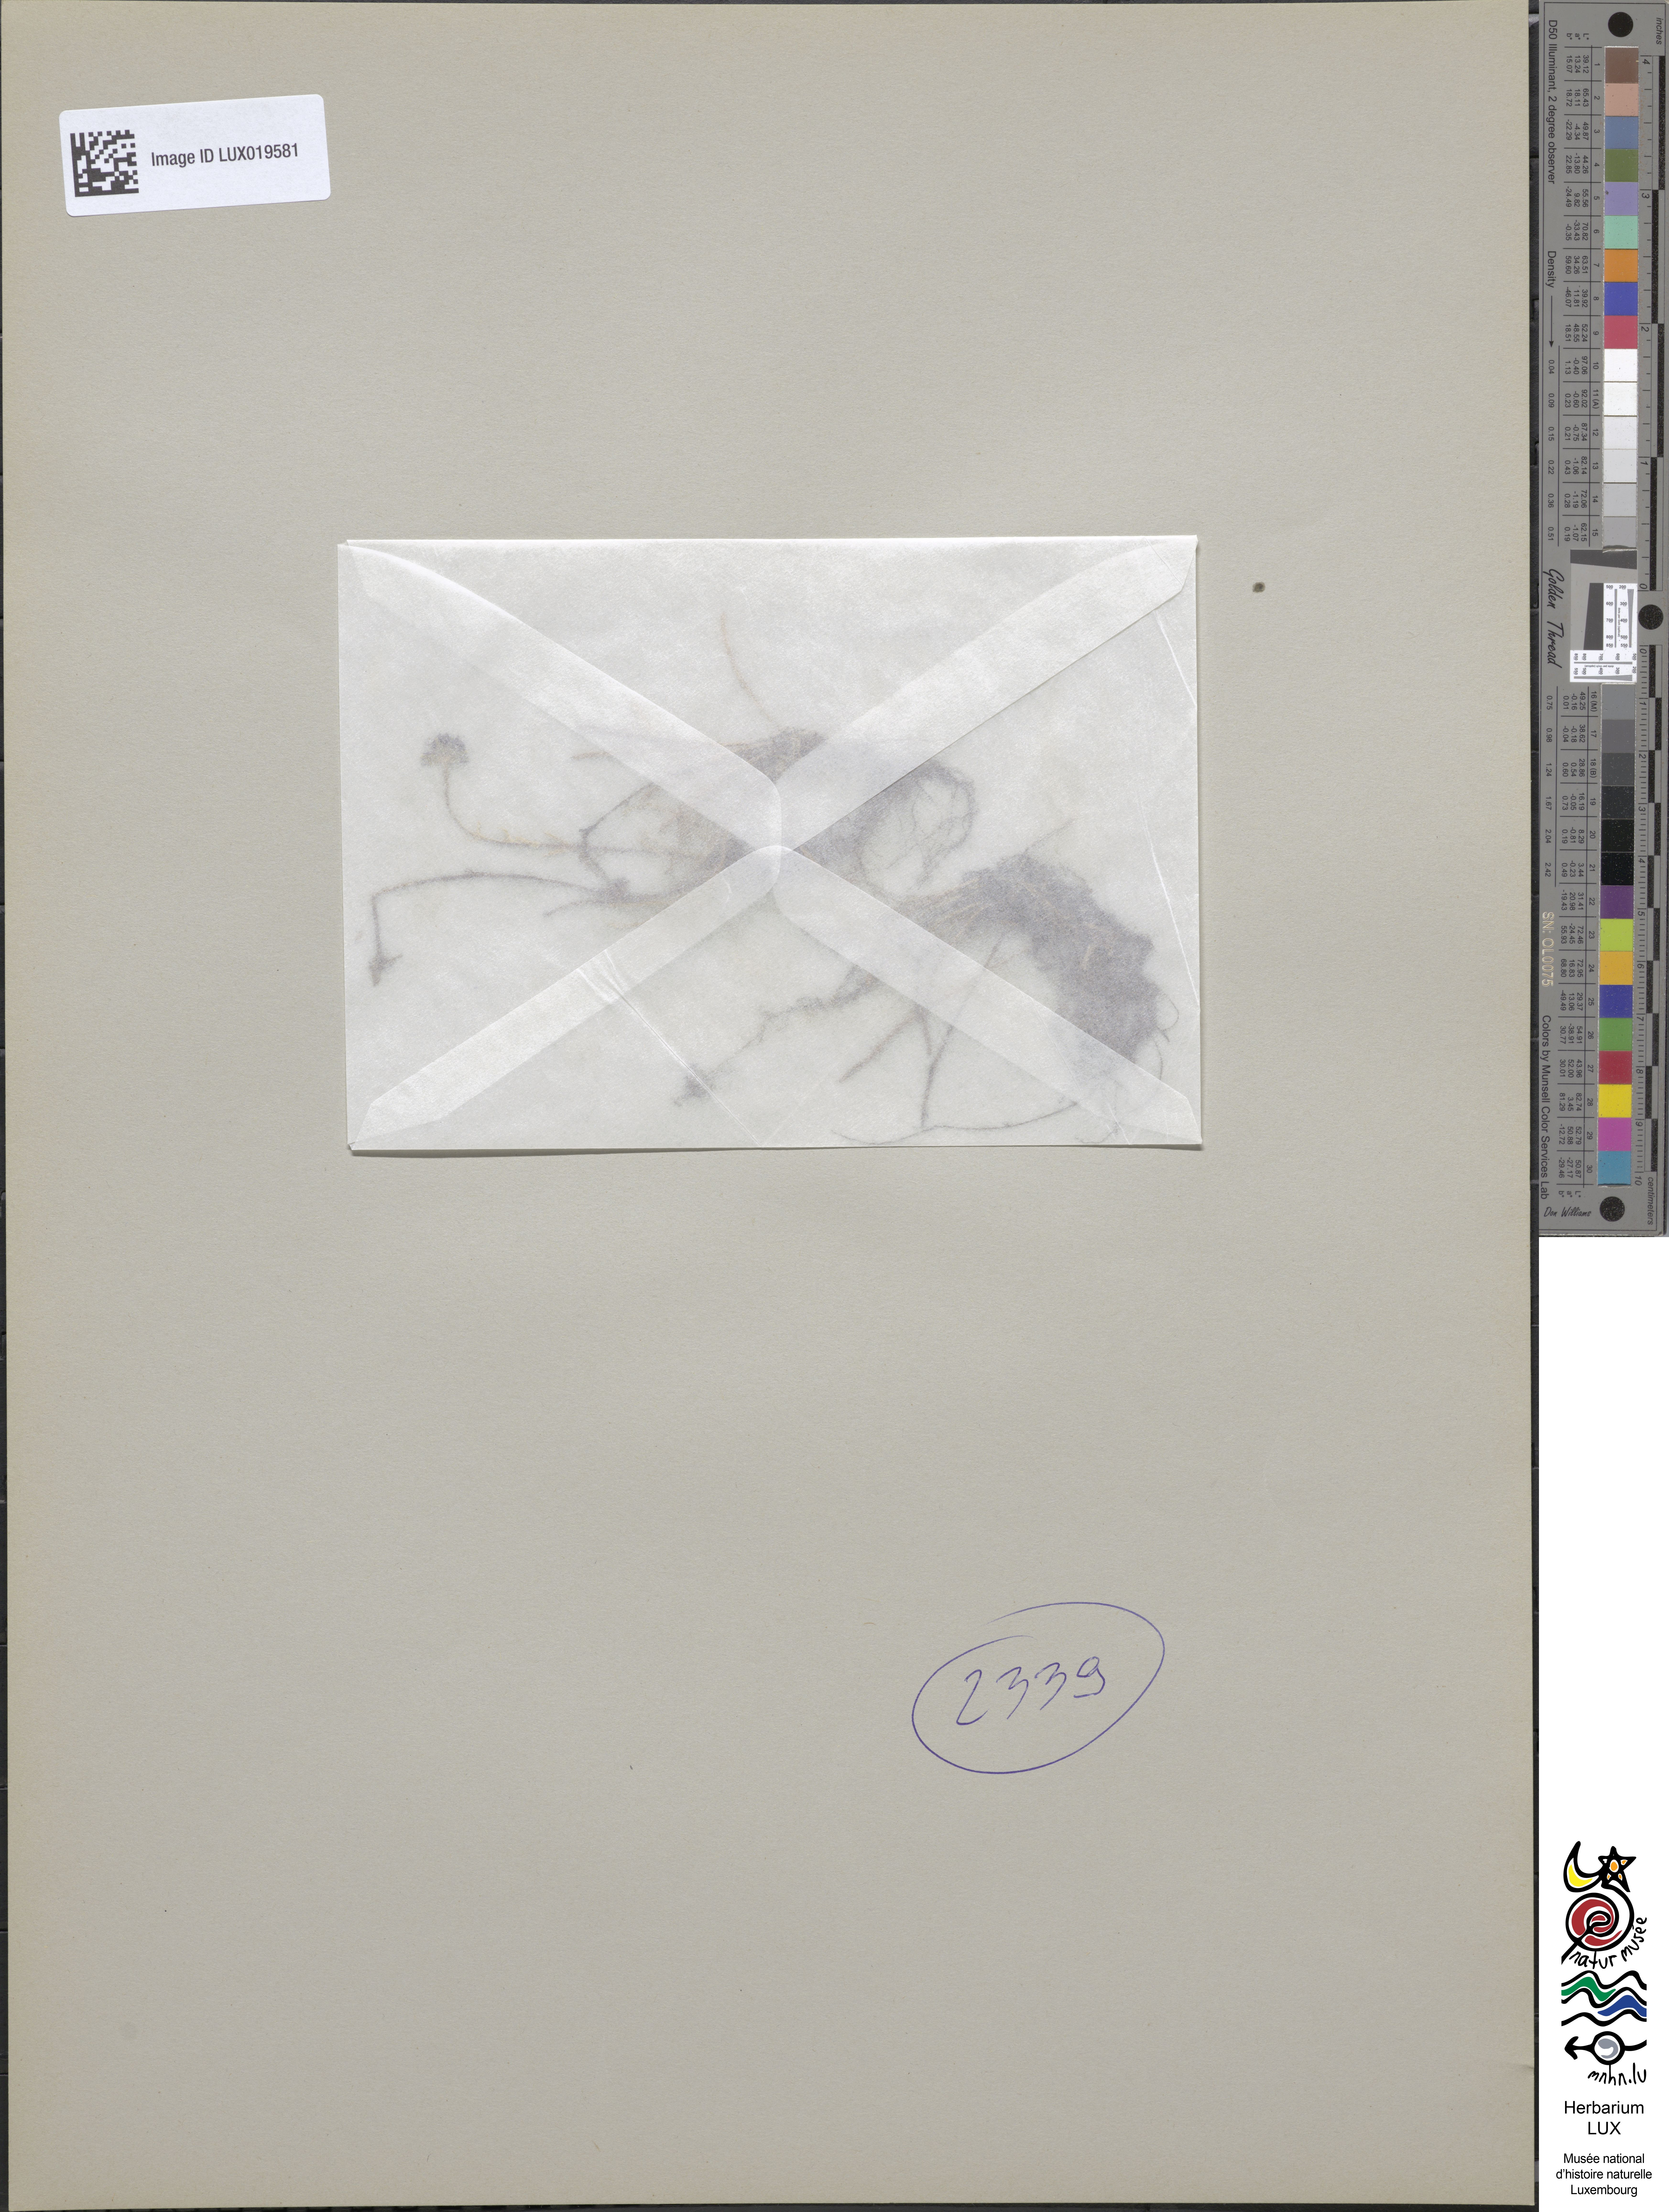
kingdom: Plantae
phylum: Tracheophyta
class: Magnoliopsida
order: Asterales
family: Asteraceae
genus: Ischnea
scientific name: Ischnea elachoglossa
